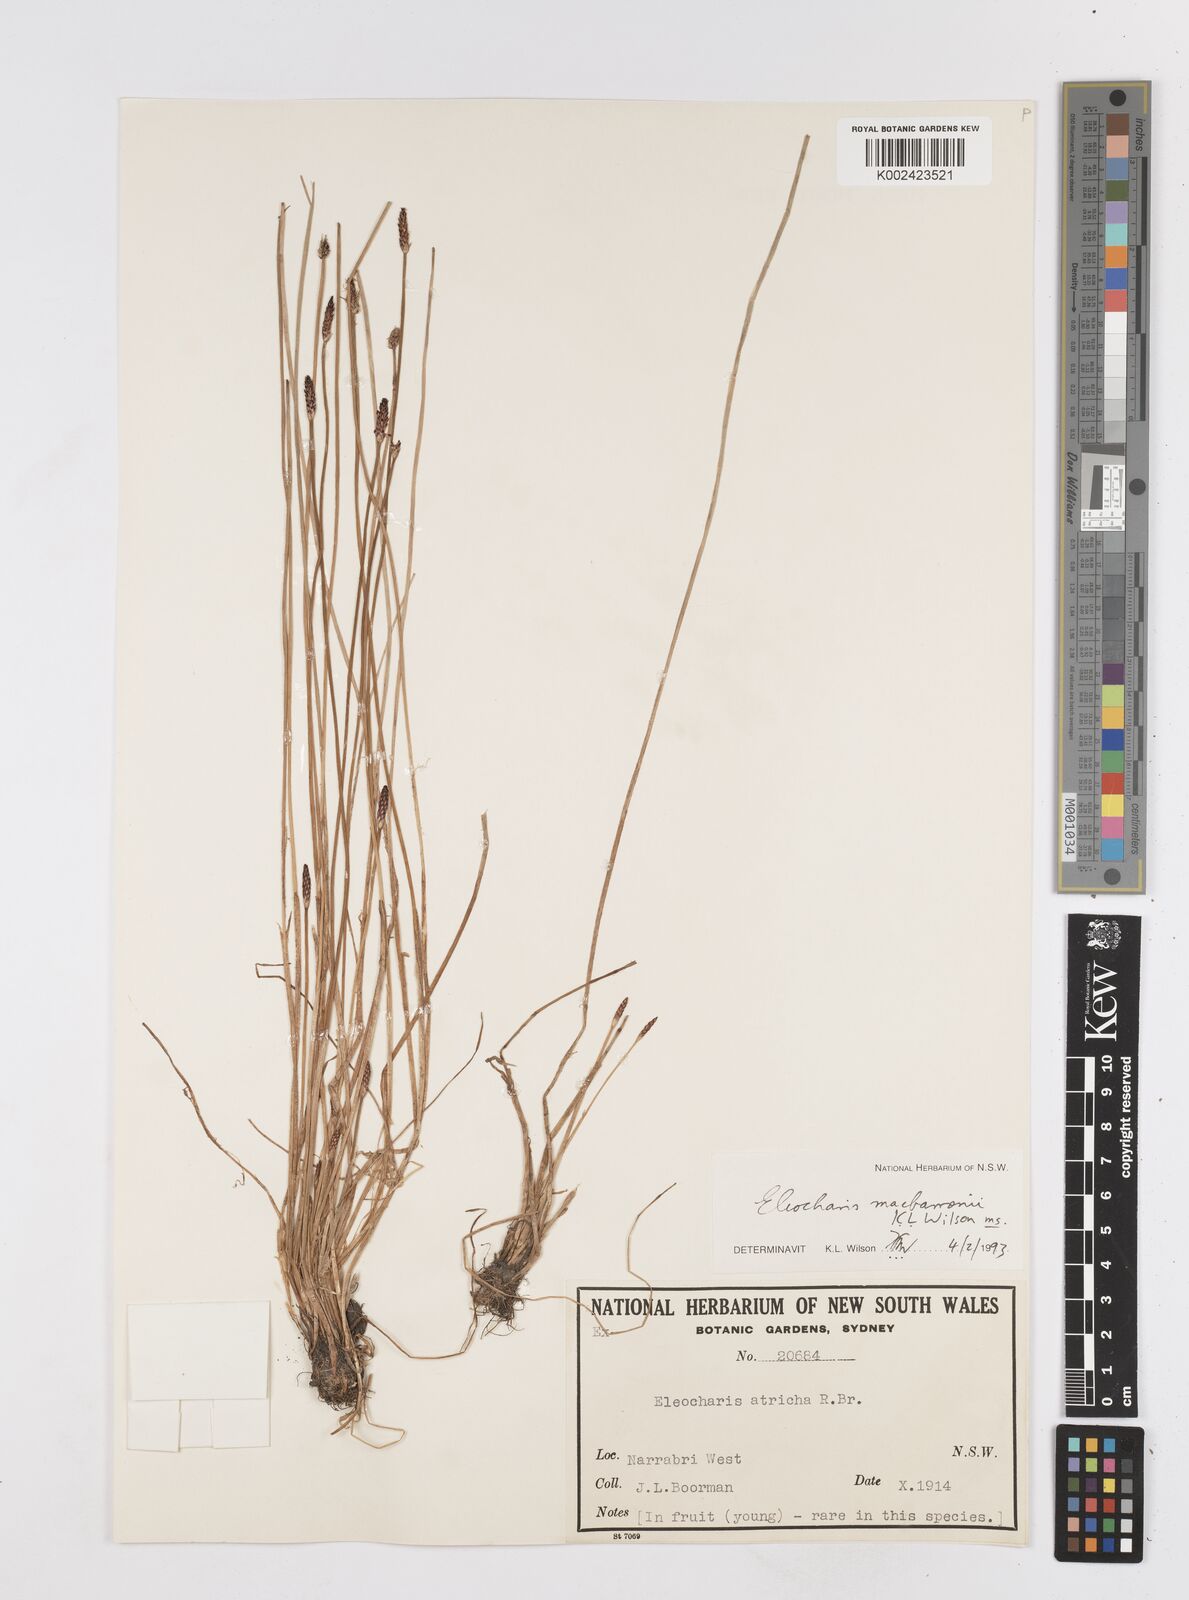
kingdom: Plantae
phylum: Tracheophyta
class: Liliopsida
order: Poales
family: Cyperaceae
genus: Eleocharis
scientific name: Eleocharis
